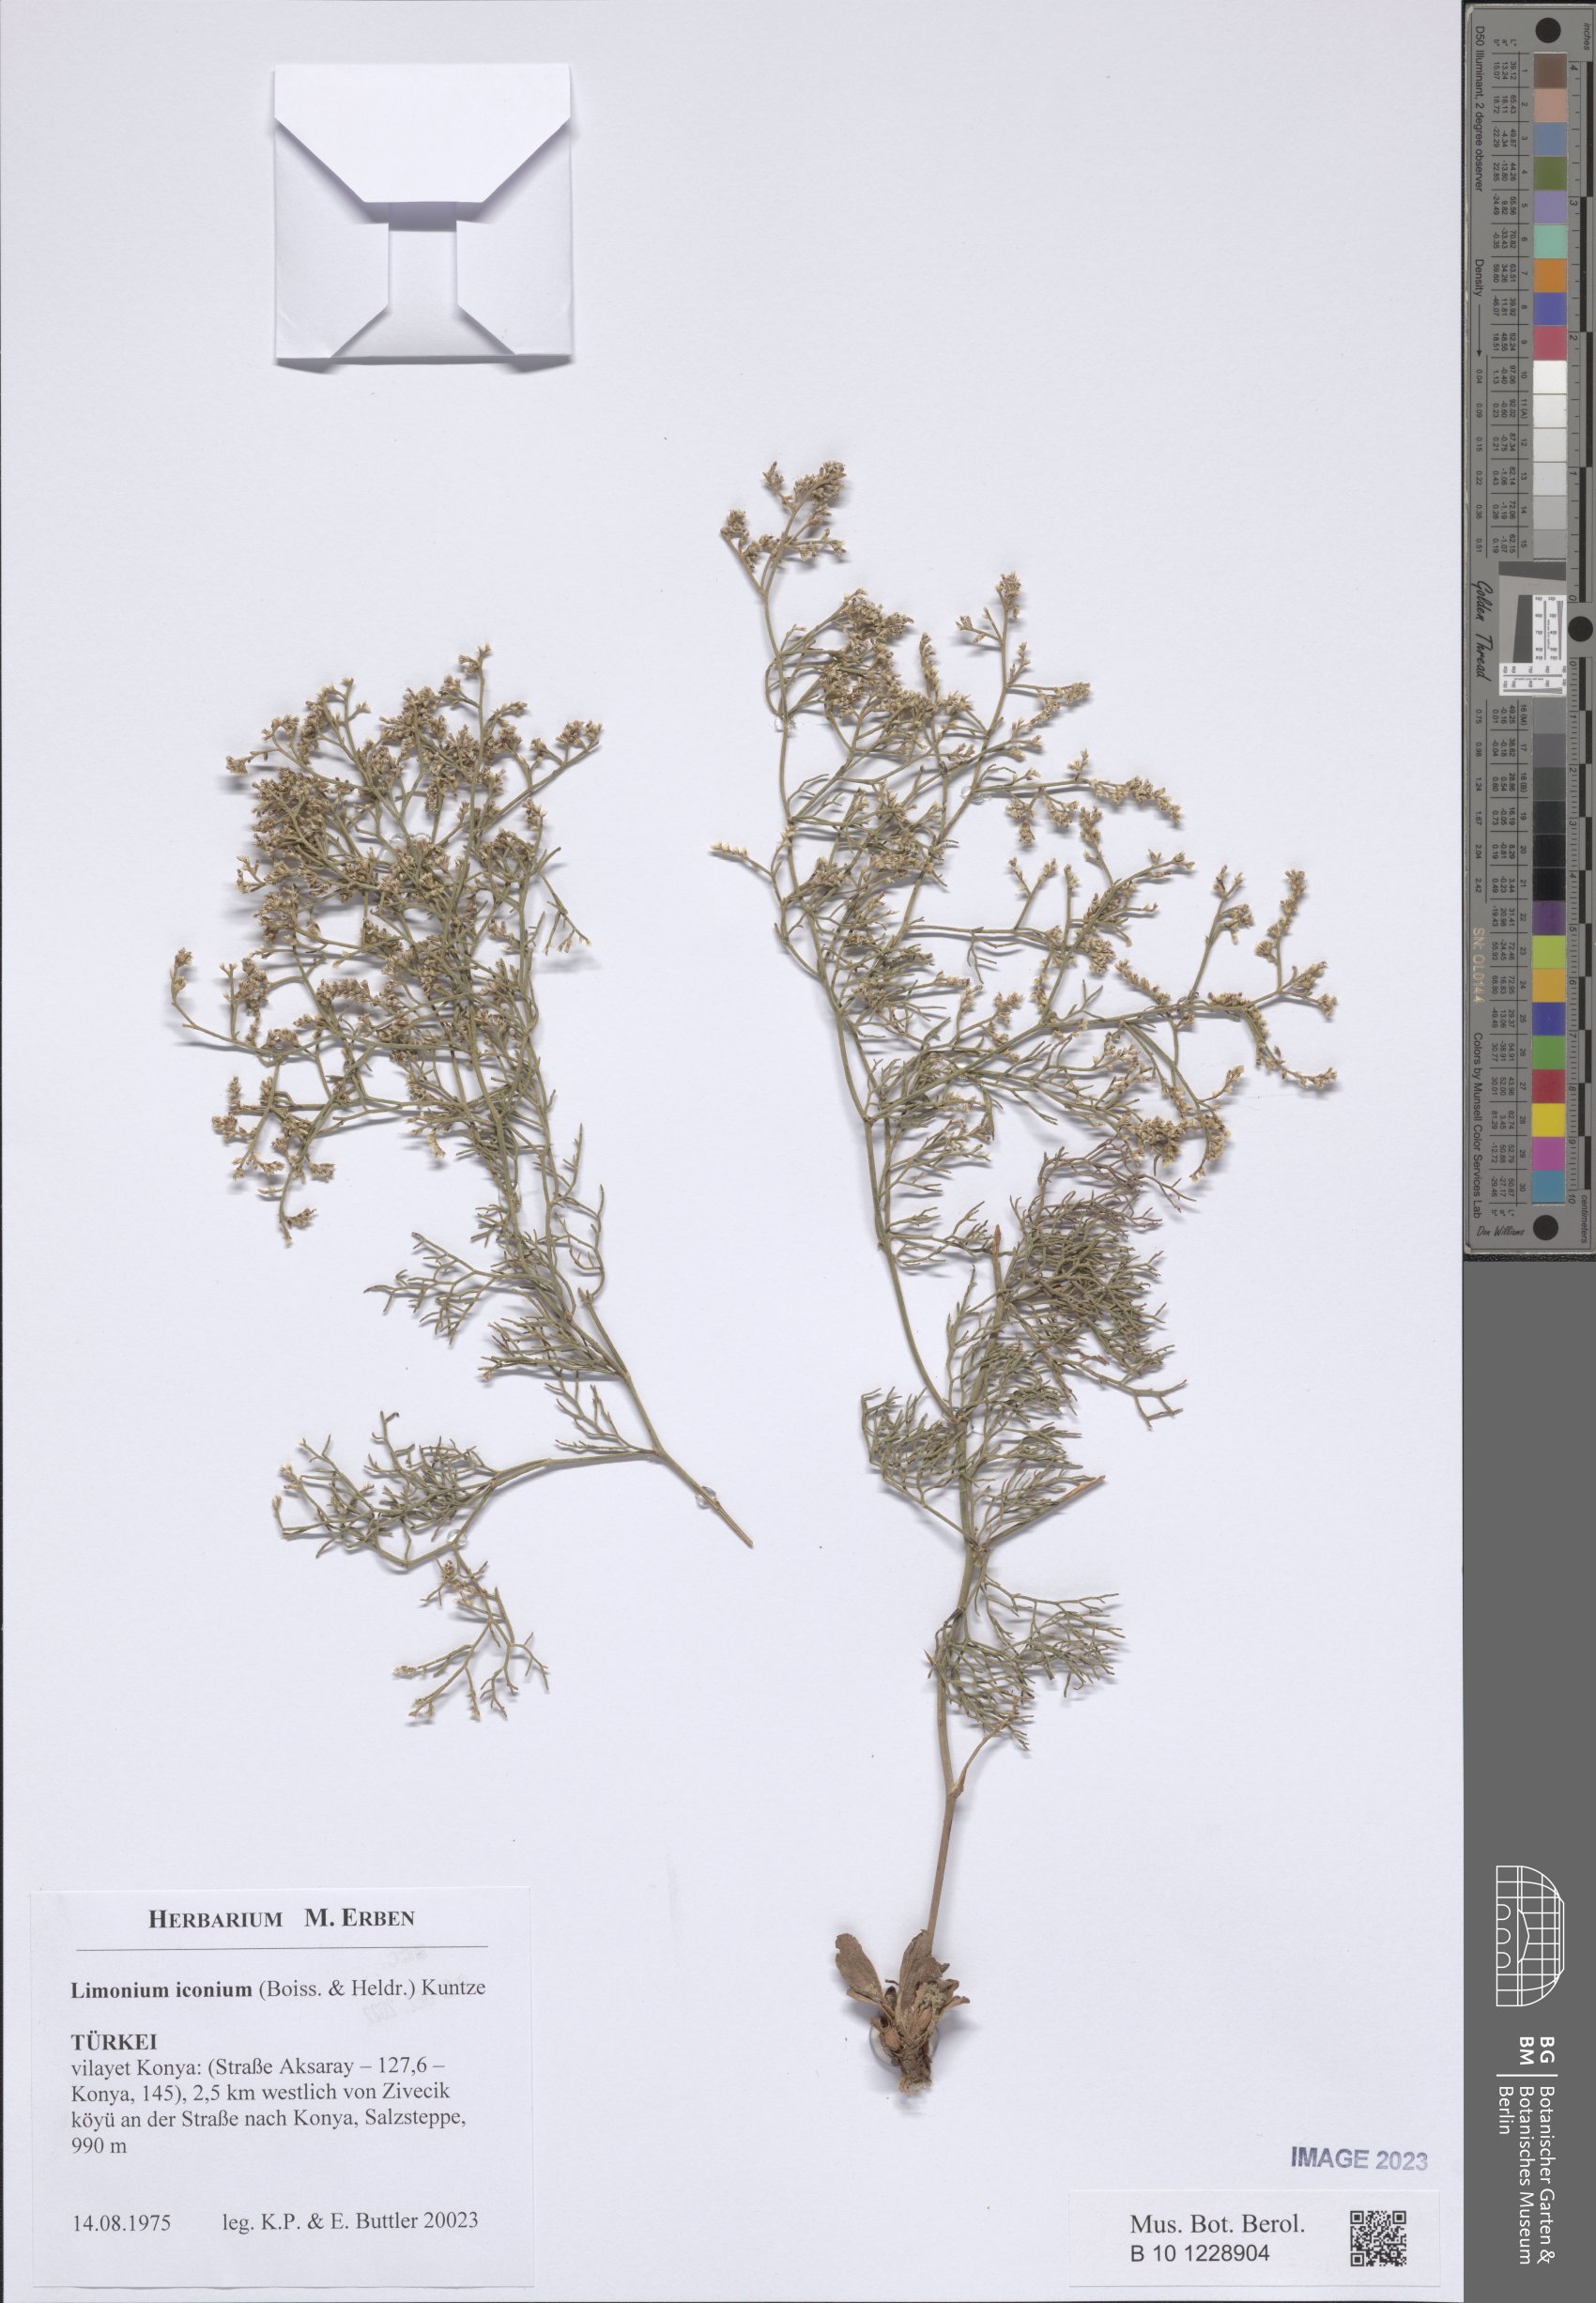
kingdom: Plantae
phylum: Tracheophyta
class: Magnoliopsida
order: Caryophyllales
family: Plumbaginaceae
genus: Limonium
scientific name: Limonium iconium
